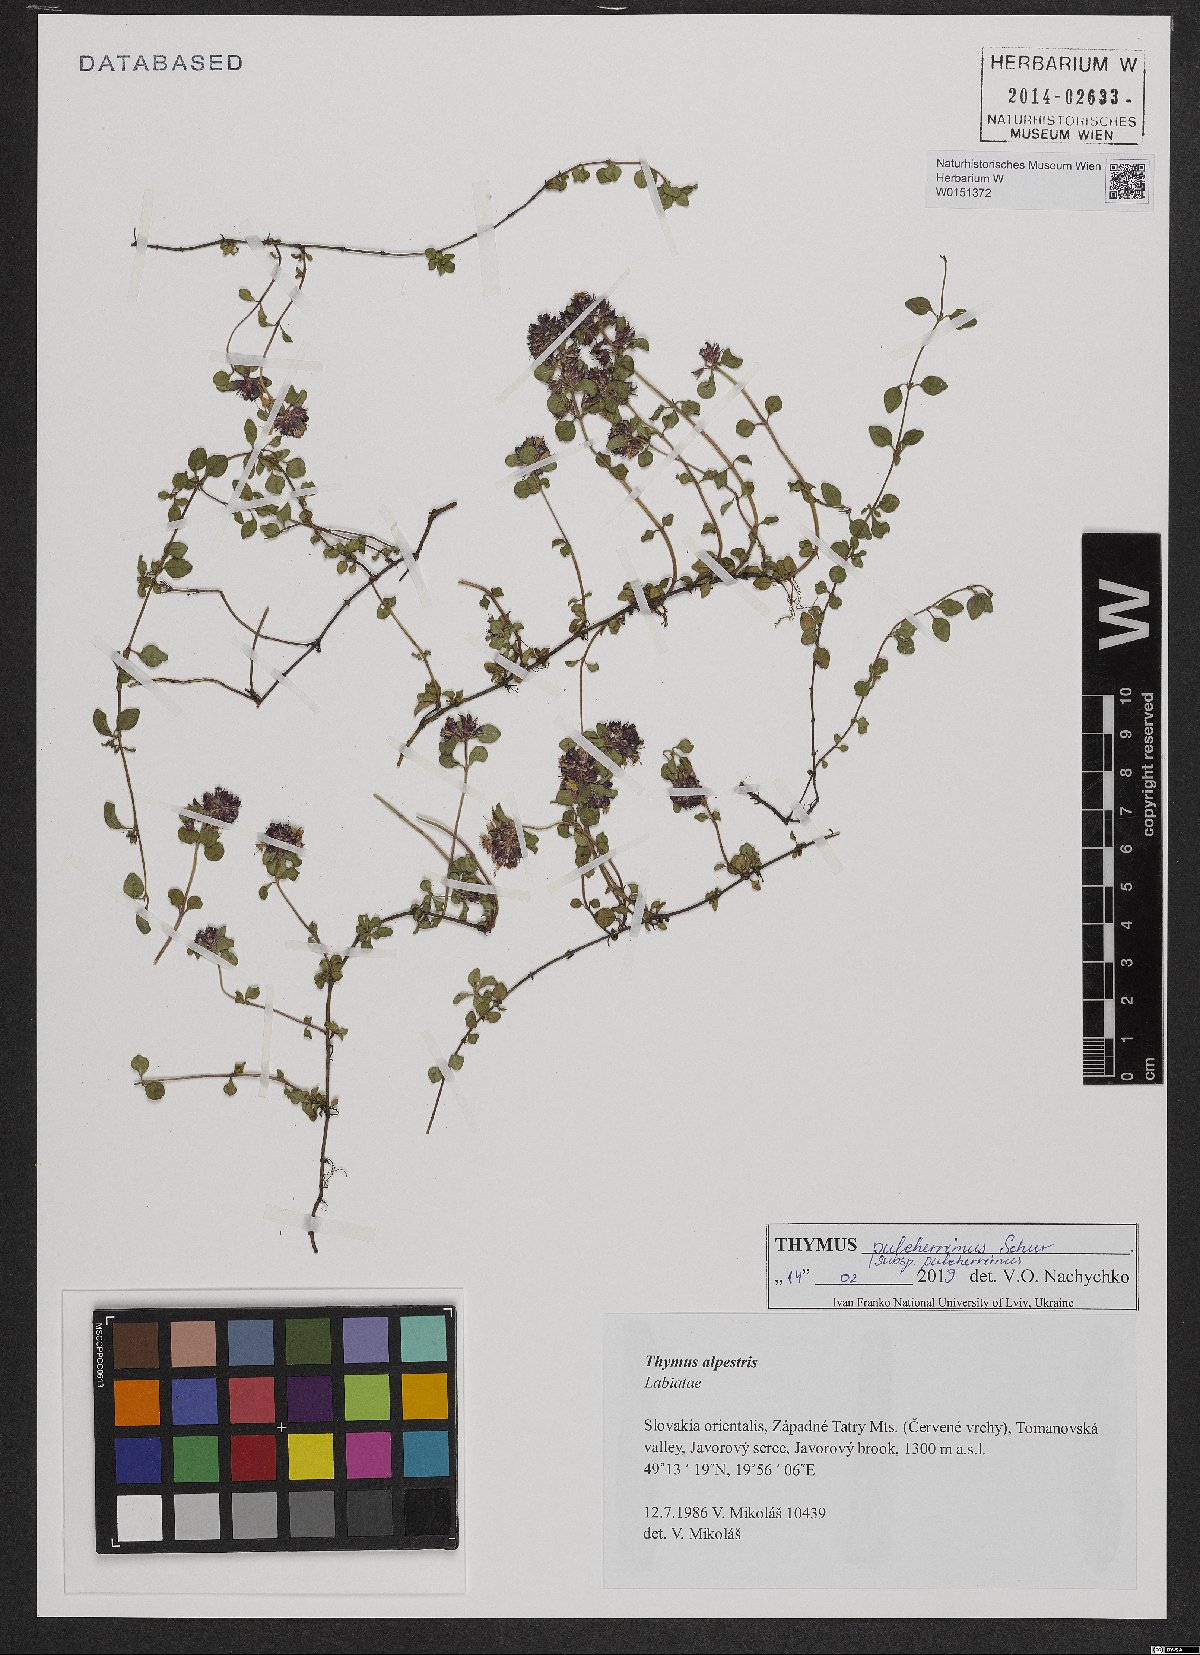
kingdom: Plantae
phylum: Tracheophyta
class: Magnoliopsida
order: Lamiales
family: Lamiaceae
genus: Thymus
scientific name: Thymus alpestris
